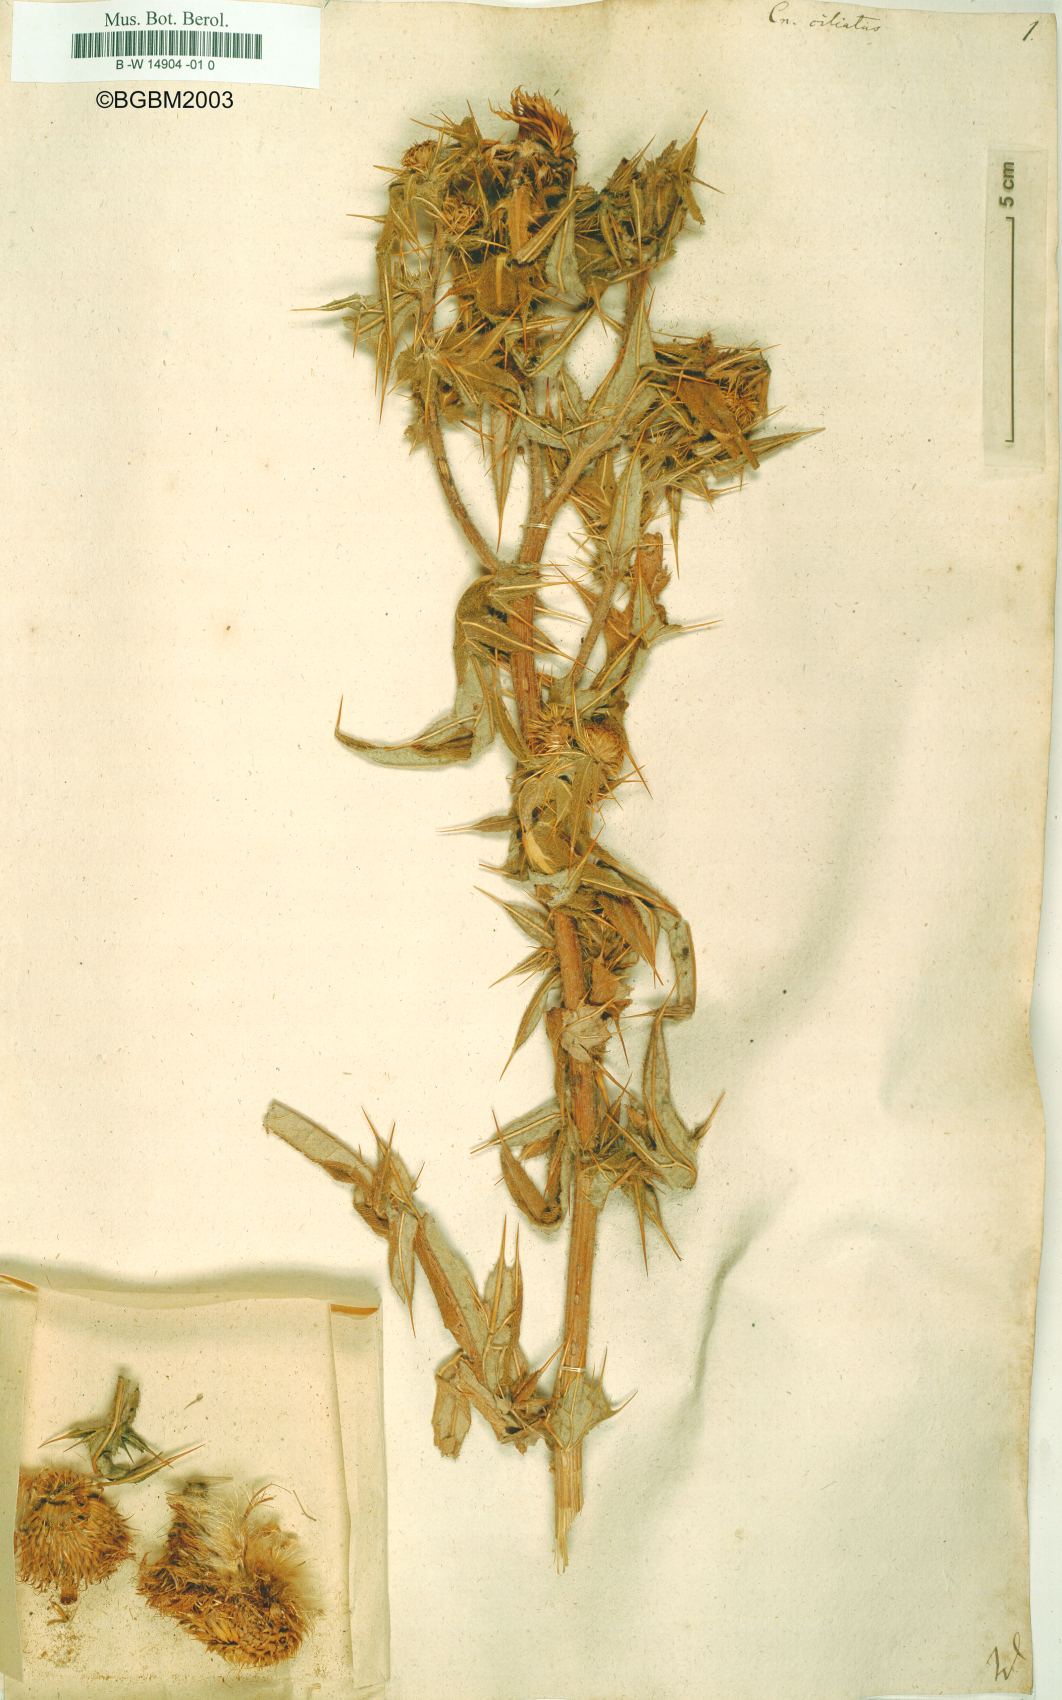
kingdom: Plantae
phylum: Tracheophyta
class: Magnoliopsida
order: Asterales
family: Asteraceae
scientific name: Asteraceae
